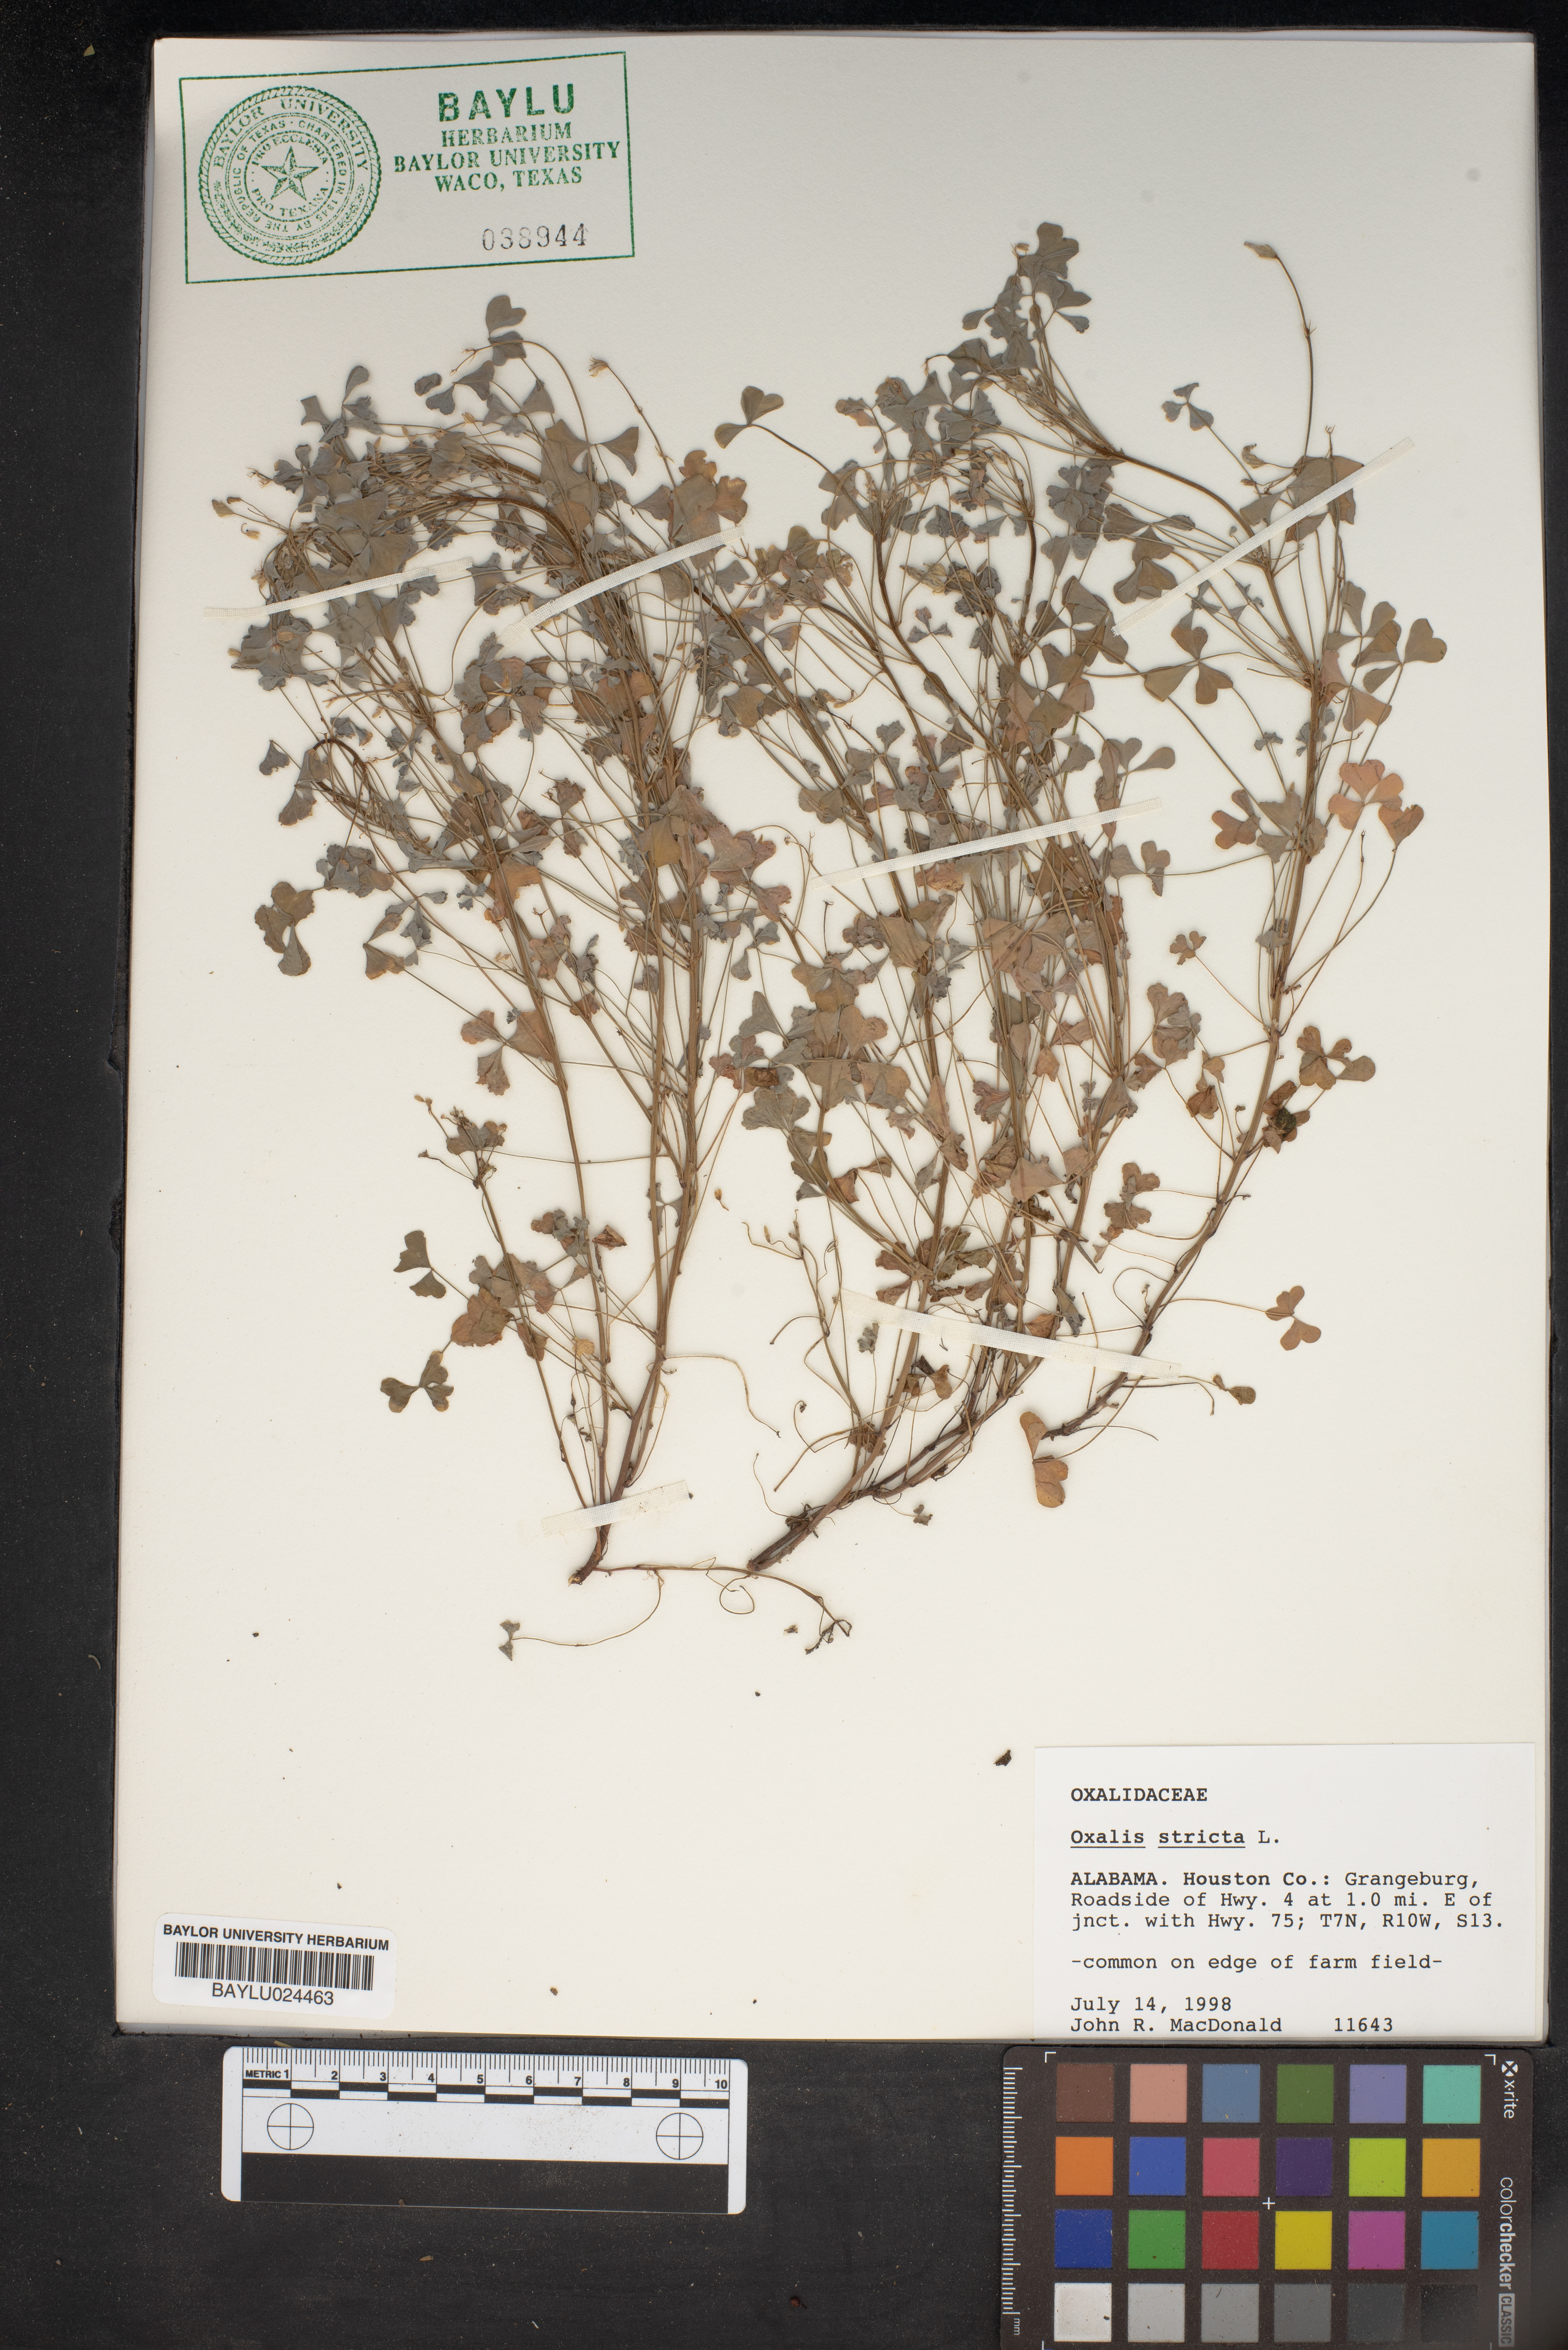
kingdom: Plantae
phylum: Tracheophyta
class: Magnoliopsida
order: Oxalidales
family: Oxalidaceae
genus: Oxalis
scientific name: Oxalis stricta
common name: Upright yellow-sorrel
